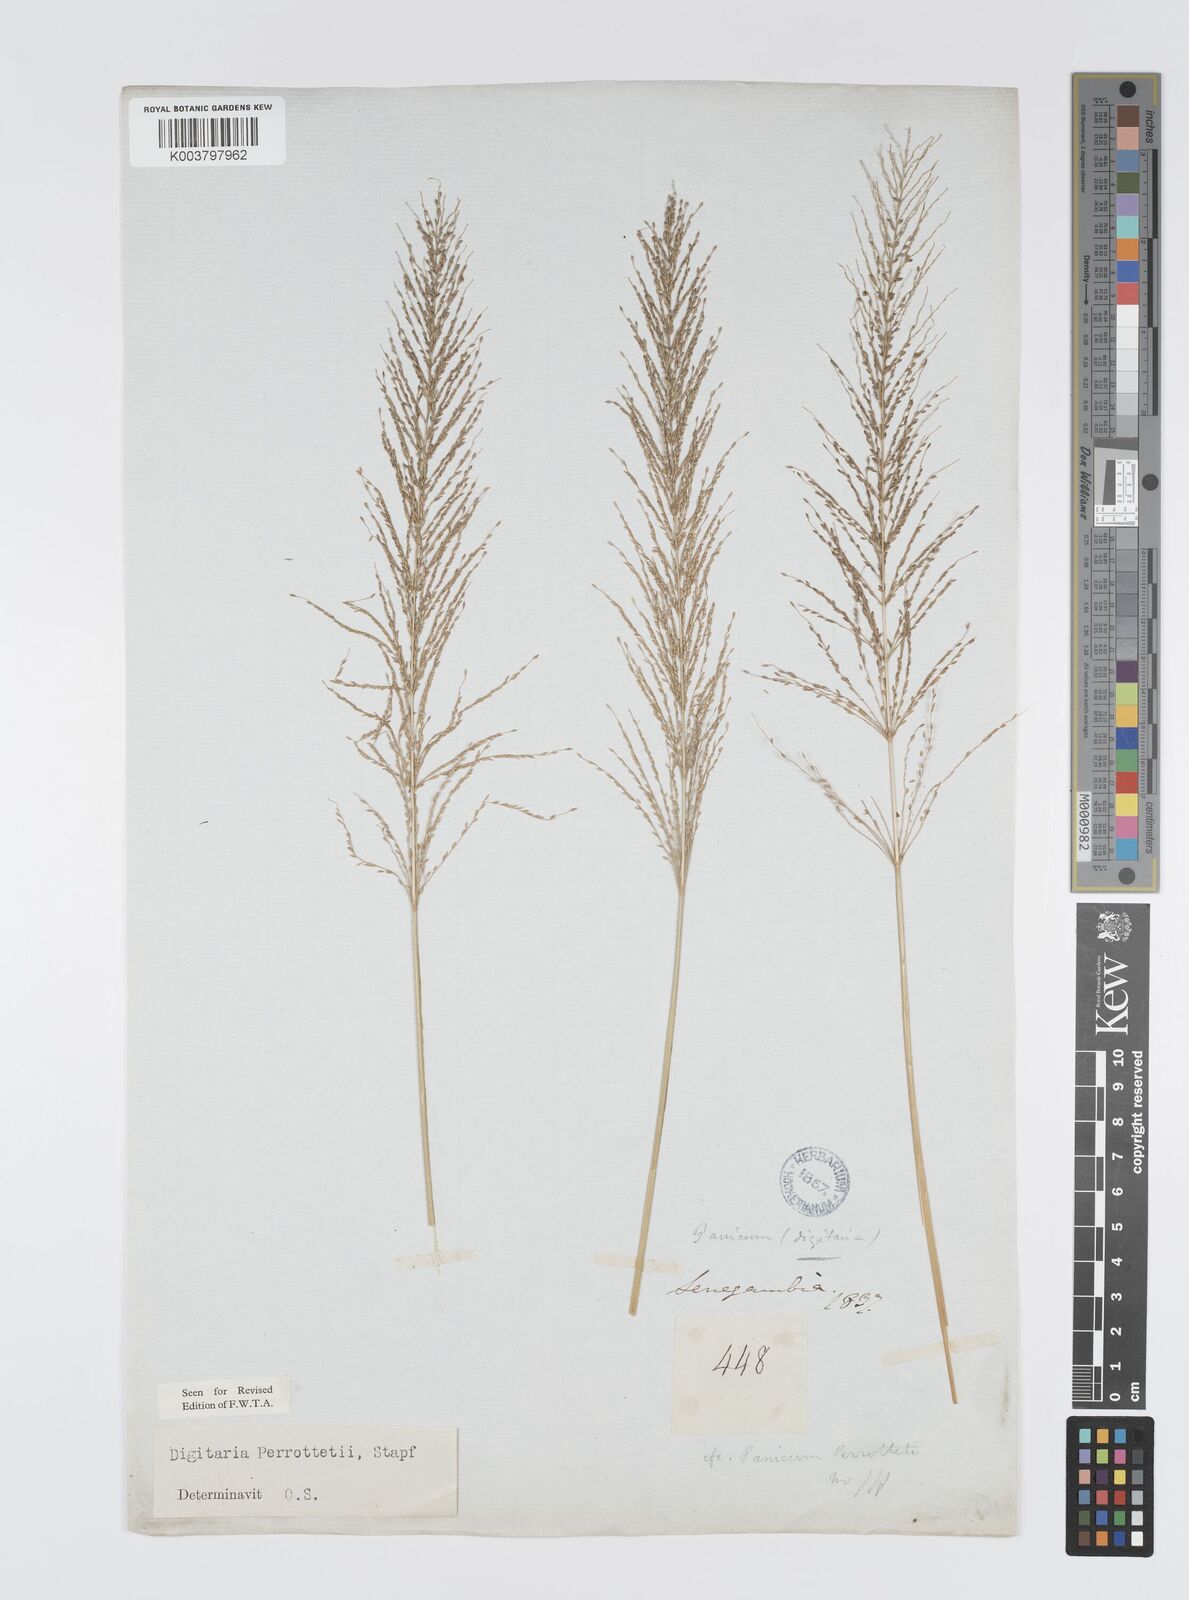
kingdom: Plantae
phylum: Tracheophyta
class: Liliopsida
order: Poales
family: Poaceae
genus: Digitaria
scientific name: Digitaria perrottetii
